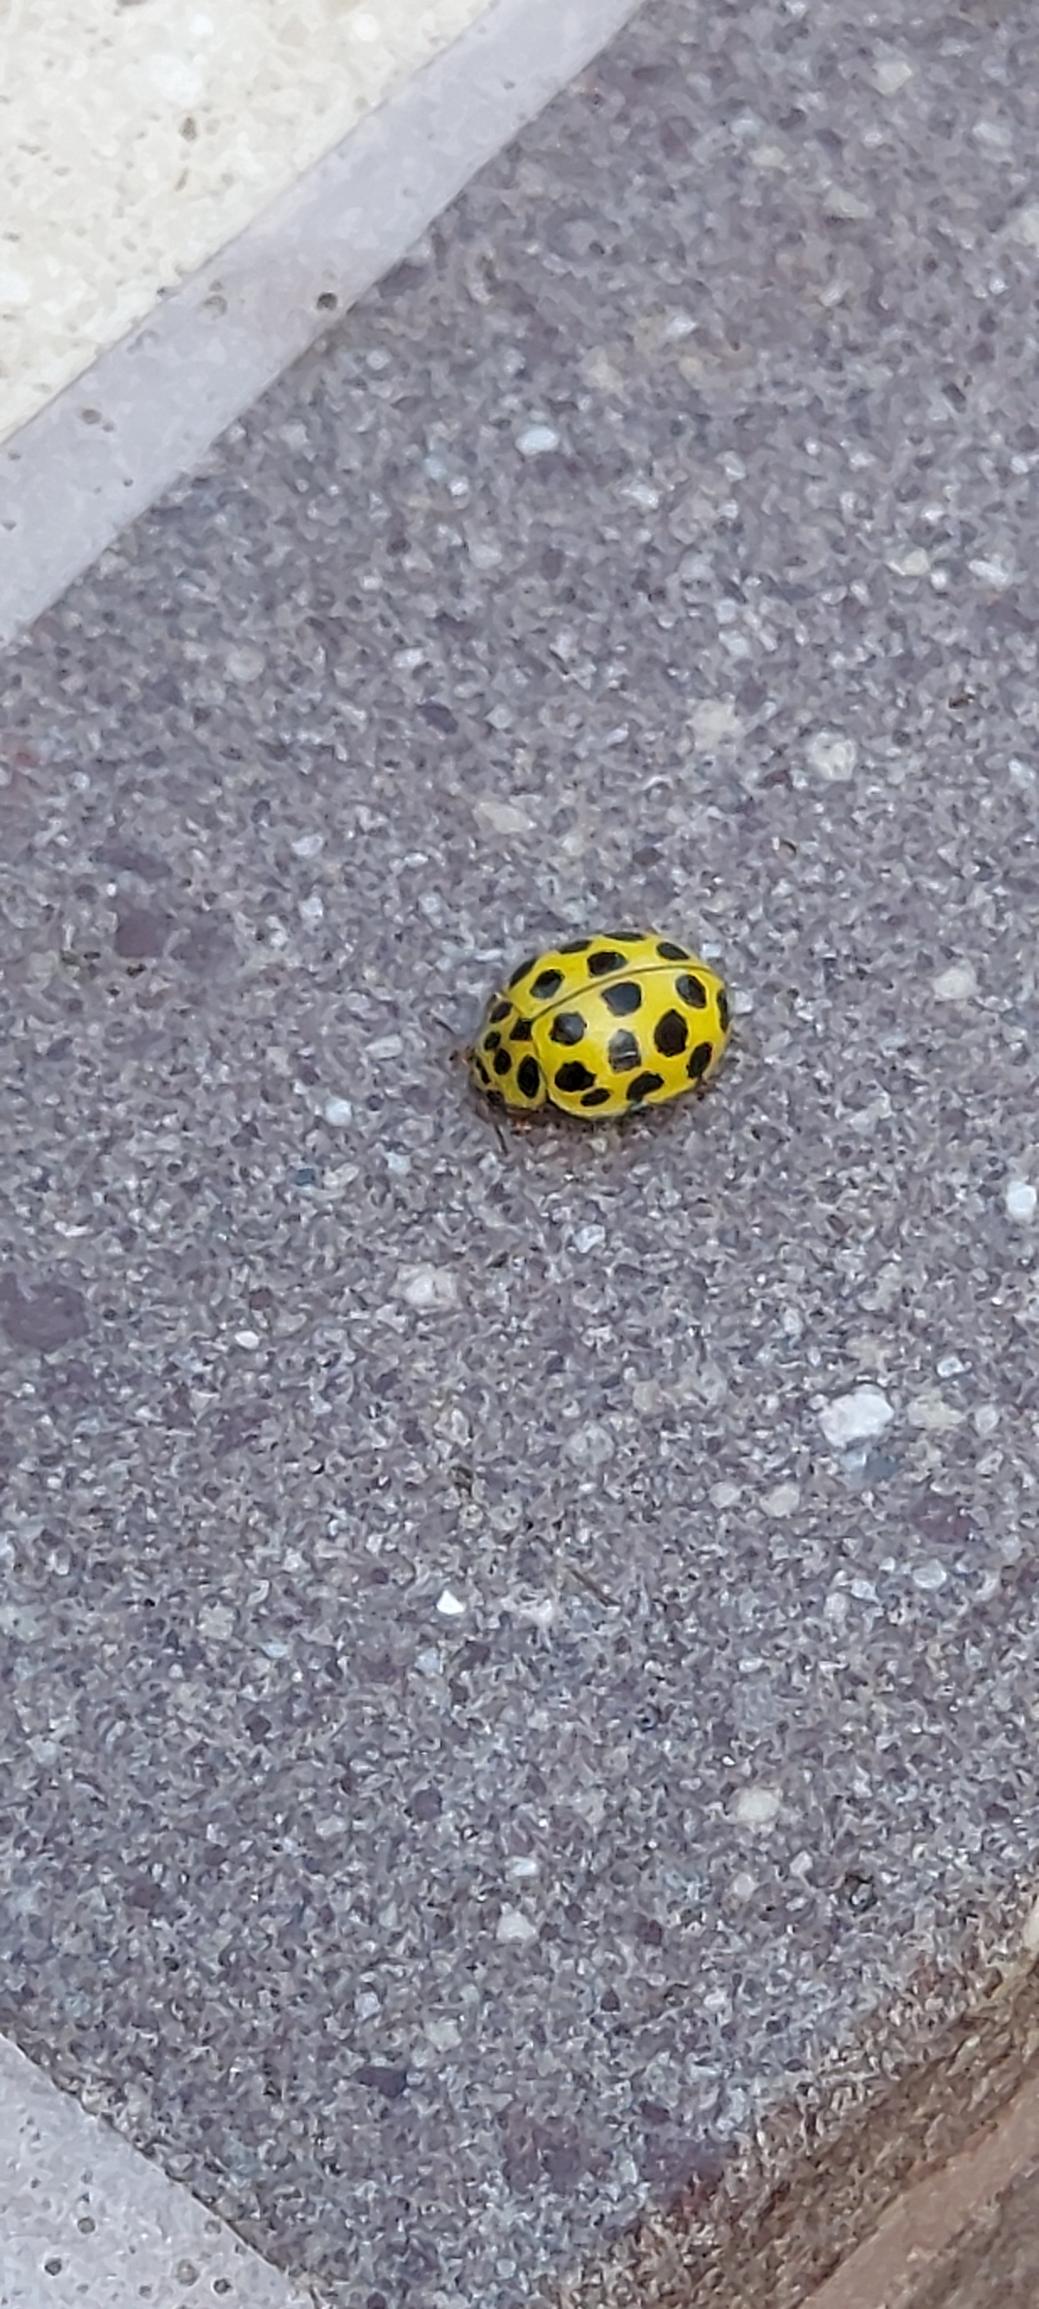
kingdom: Animalia
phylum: Arthropoda
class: Insecta
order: Coleoptera
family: Coccinellidae
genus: Psyllobora
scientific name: Psyllobora vigintiduopunctata
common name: Toogtyveplettet mariehøne
